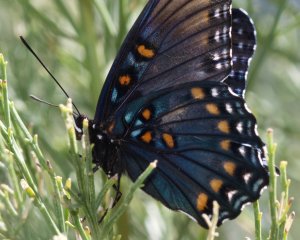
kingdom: Animalia
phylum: Arthropoda
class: Insecta
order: Lepidoptera
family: Nymphalidae
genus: Limenitis
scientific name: Limenitis astyanax
